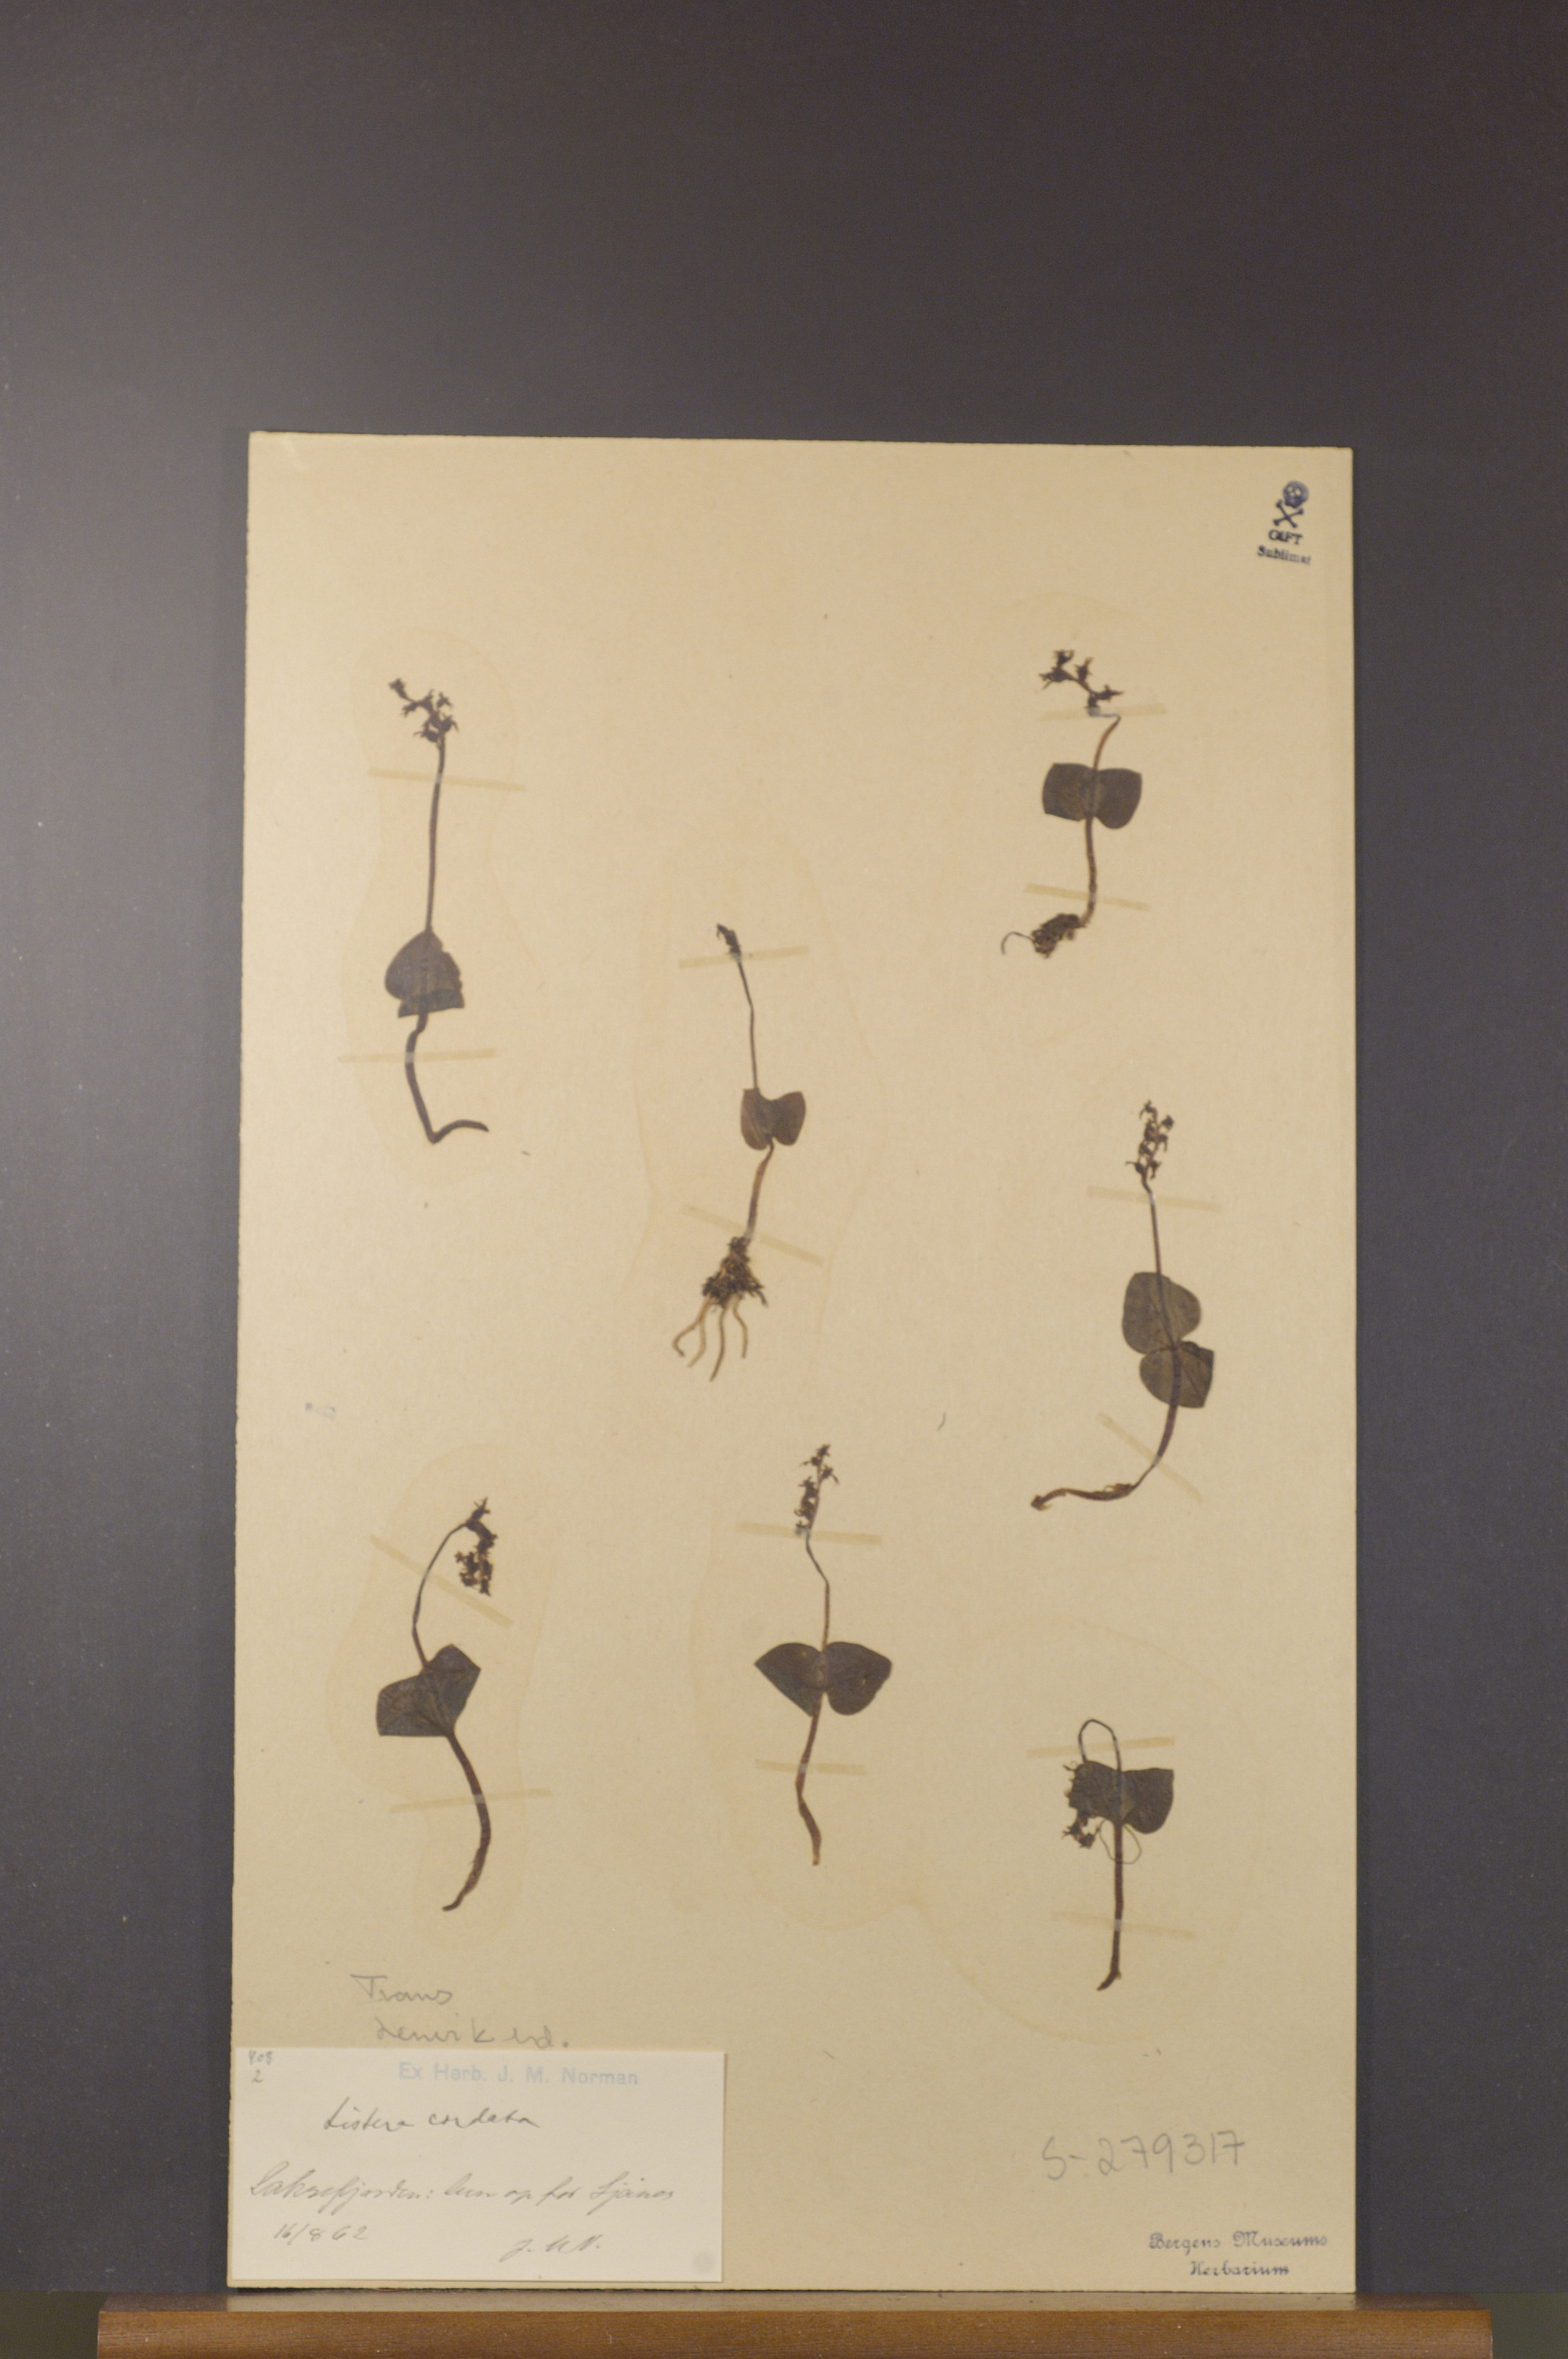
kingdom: Plantae
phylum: Tracheophyta
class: Liliopsida
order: Asparagales
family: Orchidaceae
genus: Neottia
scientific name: Neottia cordata
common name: Lesser twayblade
